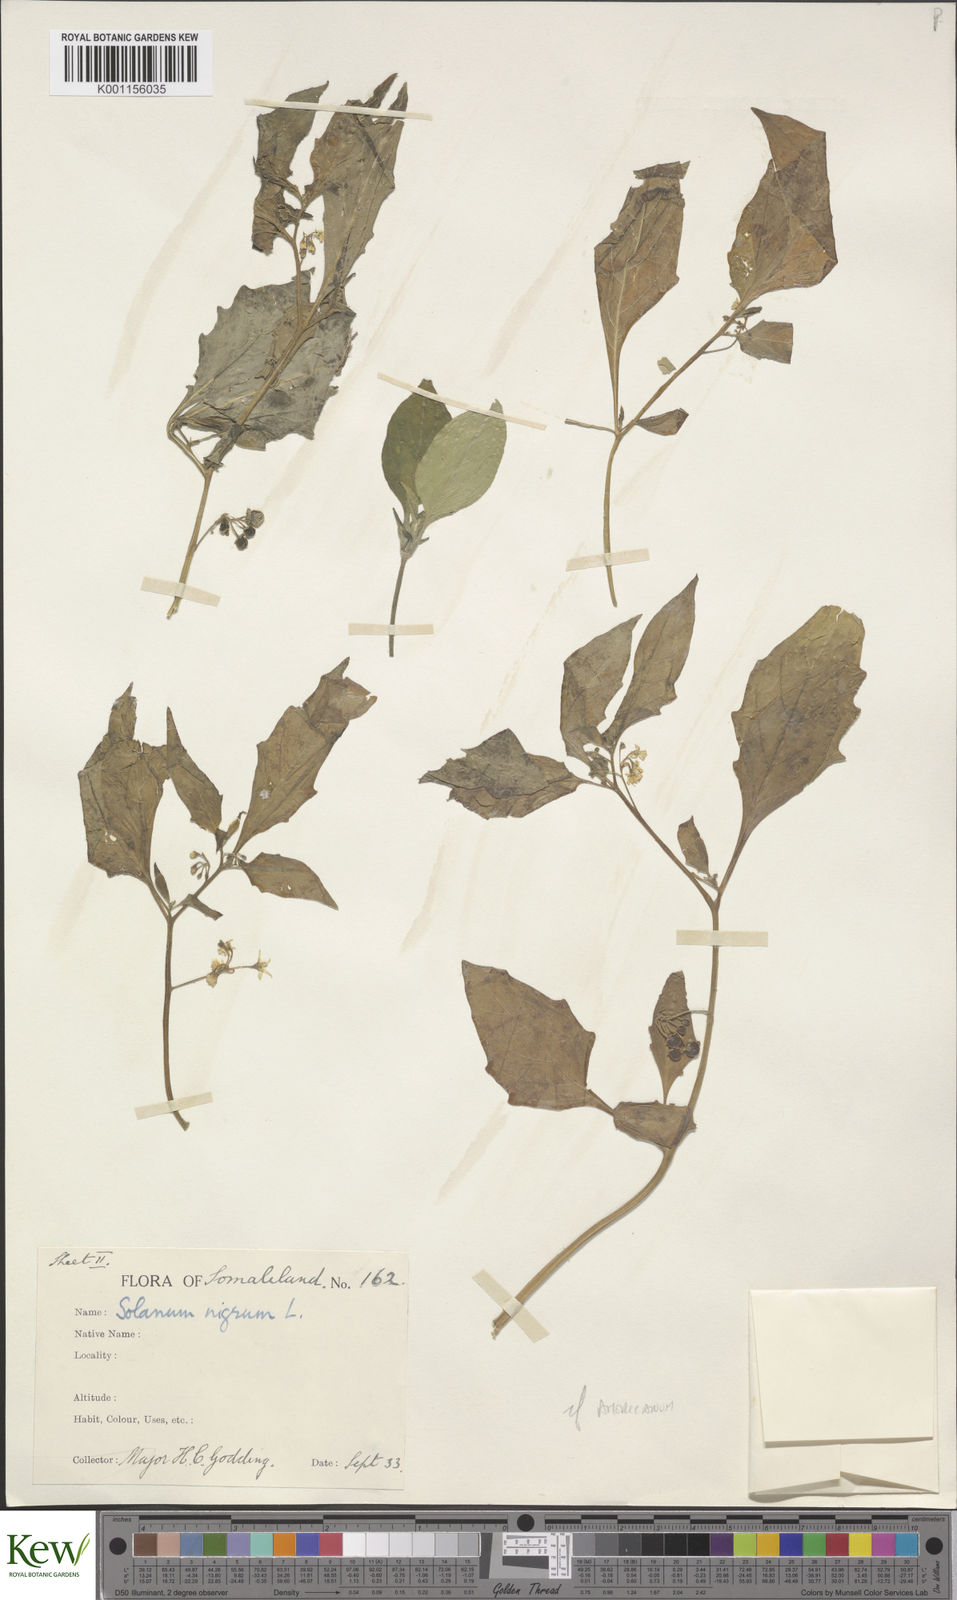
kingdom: Plantae
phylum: Tracheophyta
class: Magnoliopsida
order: Solanales
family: Solanaceae
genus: Solanum
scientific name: Solanum tarderemotum
